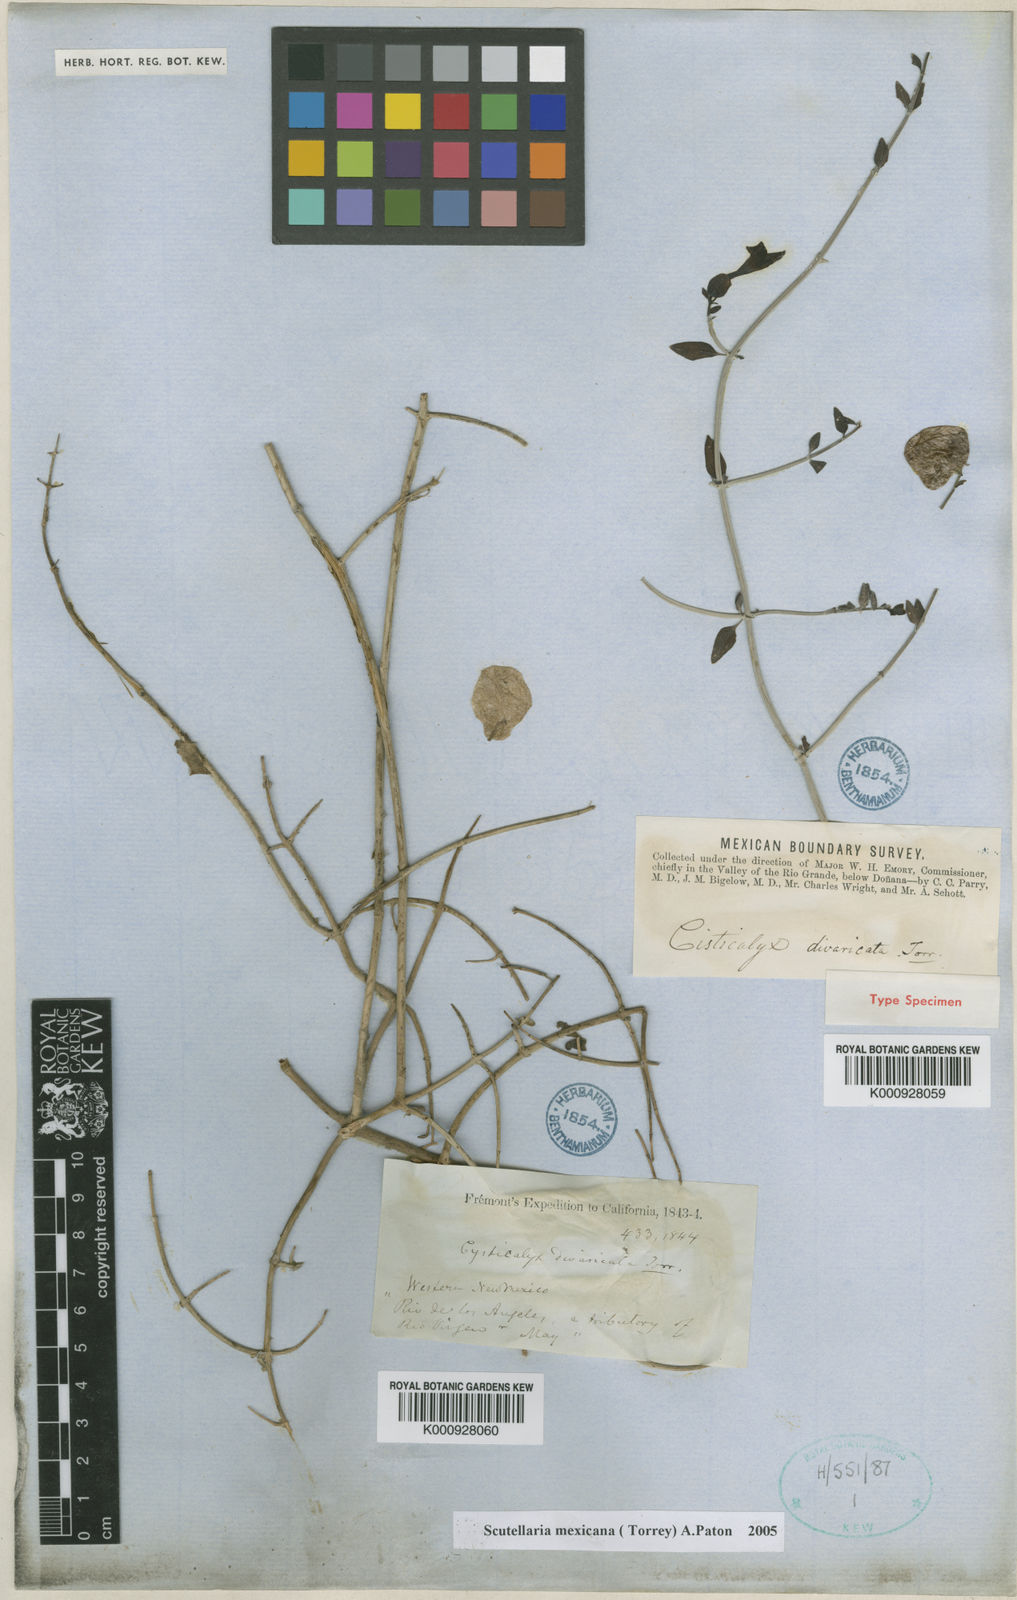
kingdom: Plantae
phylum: Tracheophyta
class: Magnoliopsida
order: Lamiales
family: Lamiaceae
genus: Scutellaria
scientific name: Scutellaria mexicana
